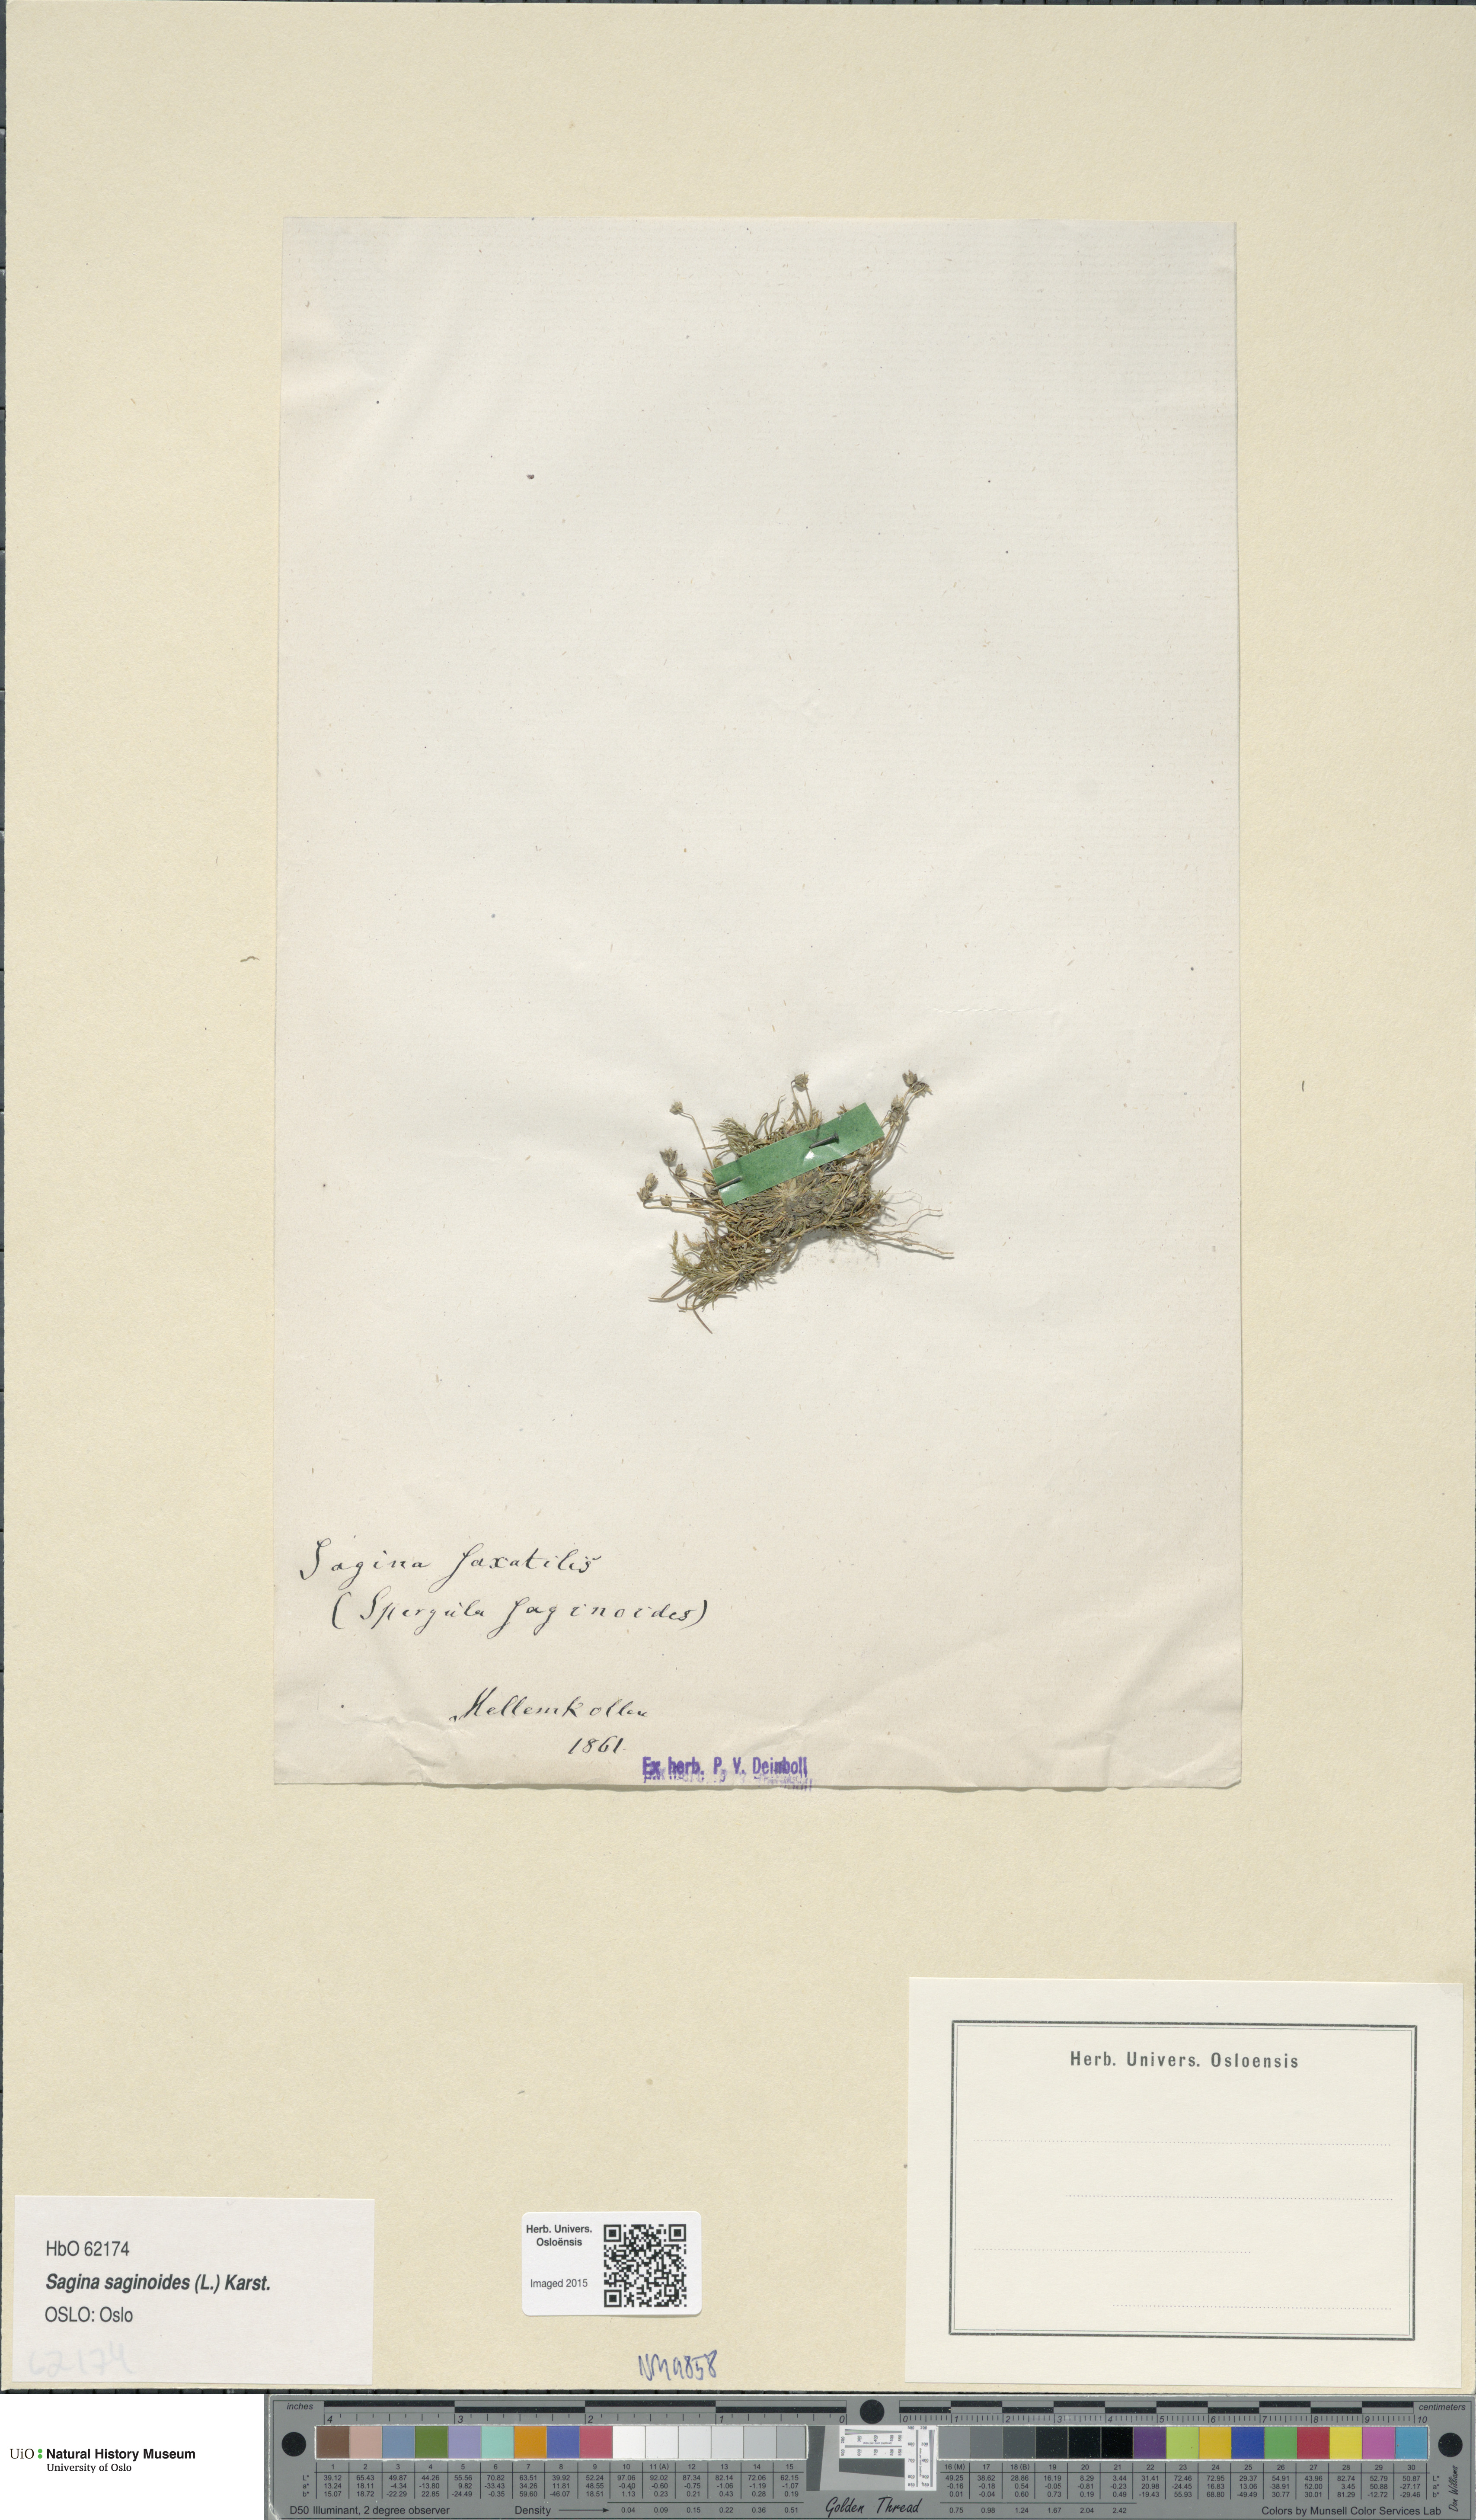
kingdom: Plantae
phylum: Tracheophyta
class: Magnoliopsida
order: Caryophyllales
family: Caryophyllaceae
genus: Sagina
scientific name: Sagina saginoides
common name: Alpine pearlwort
